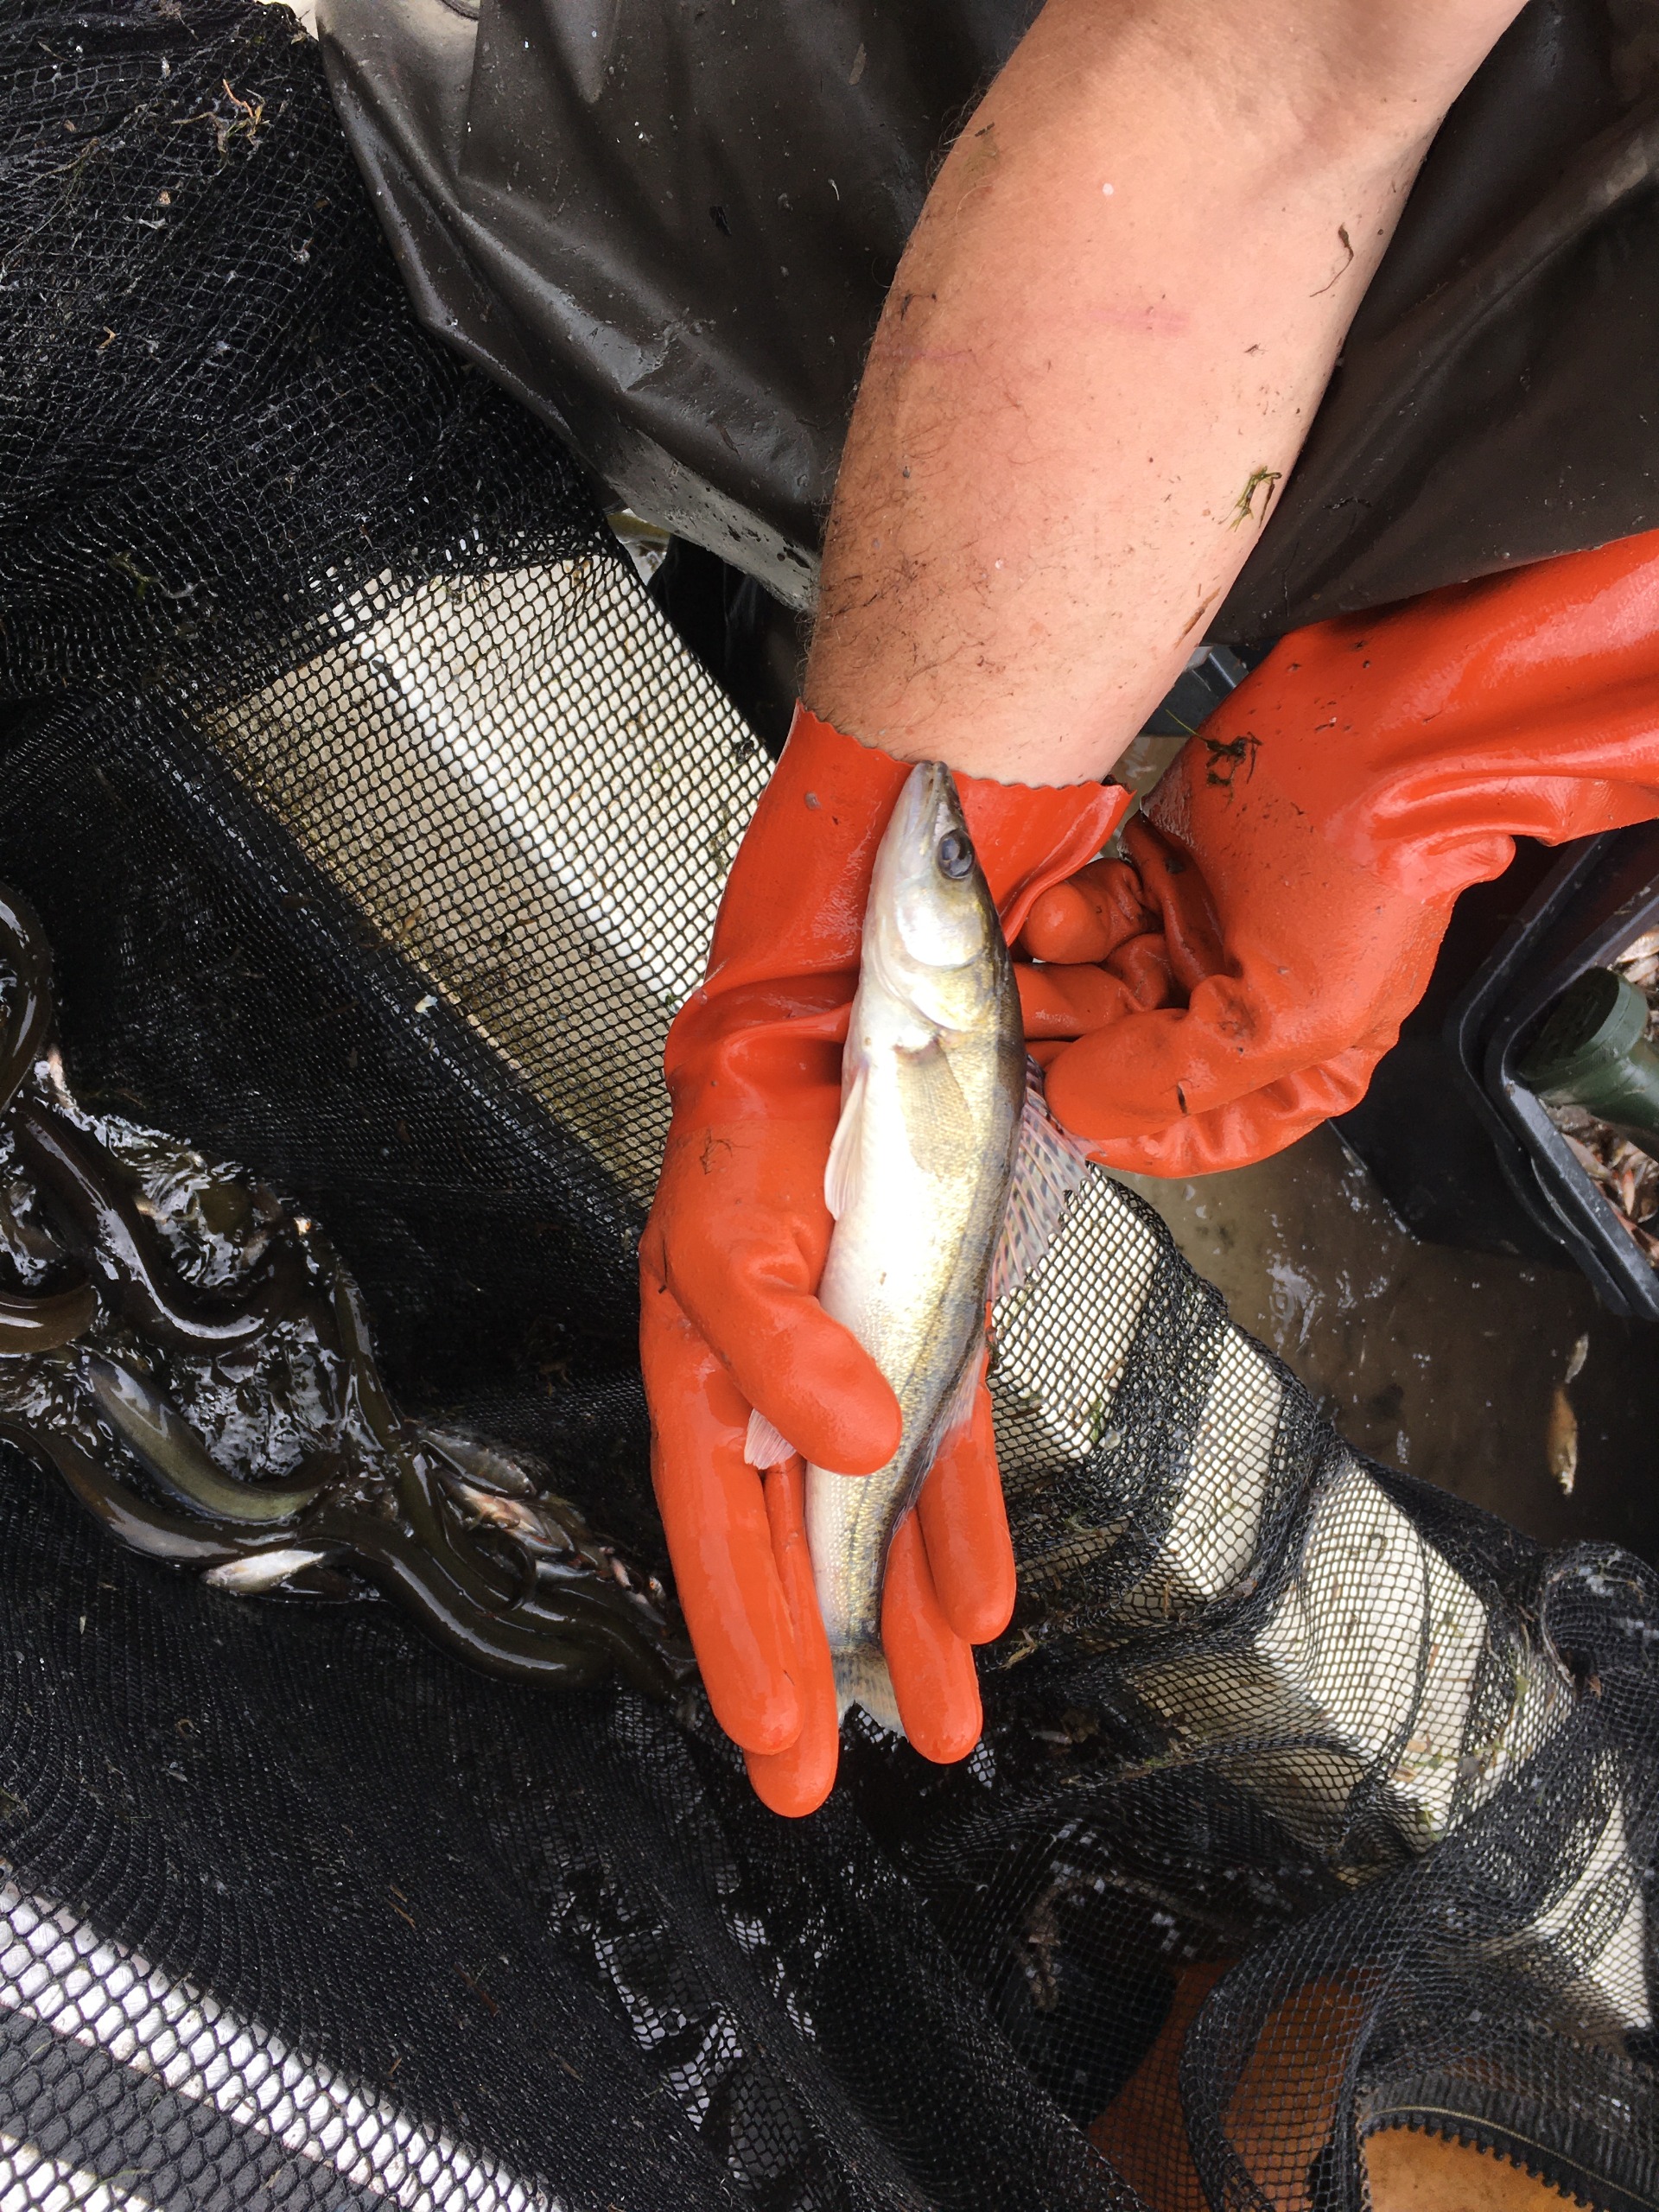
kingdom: Animalia
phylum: Chordata
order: Perciformes
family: Percidae
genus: Sander
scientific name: Sander lucioperca
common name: Sandart
